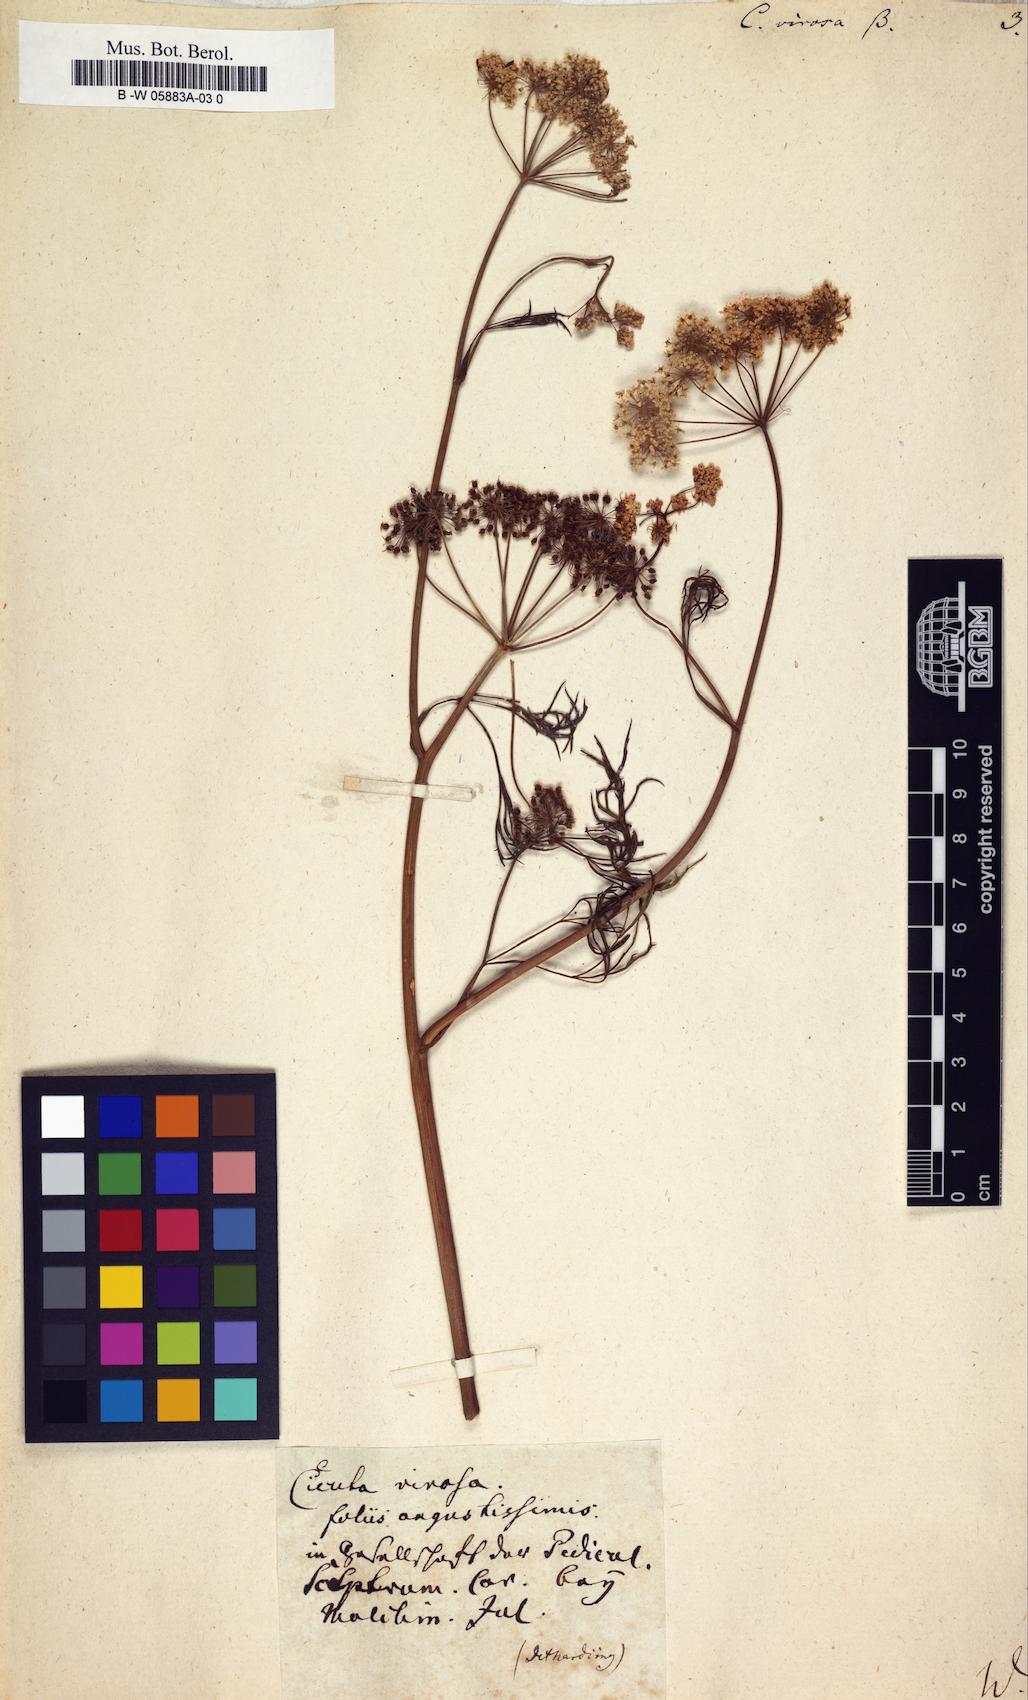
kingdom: Plantae
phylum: Tracheophyta
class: Magnoliopsida
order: Apiales
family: Apiaceae
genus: Cicuta
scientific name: Cicuta virosa
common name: Cowbane
